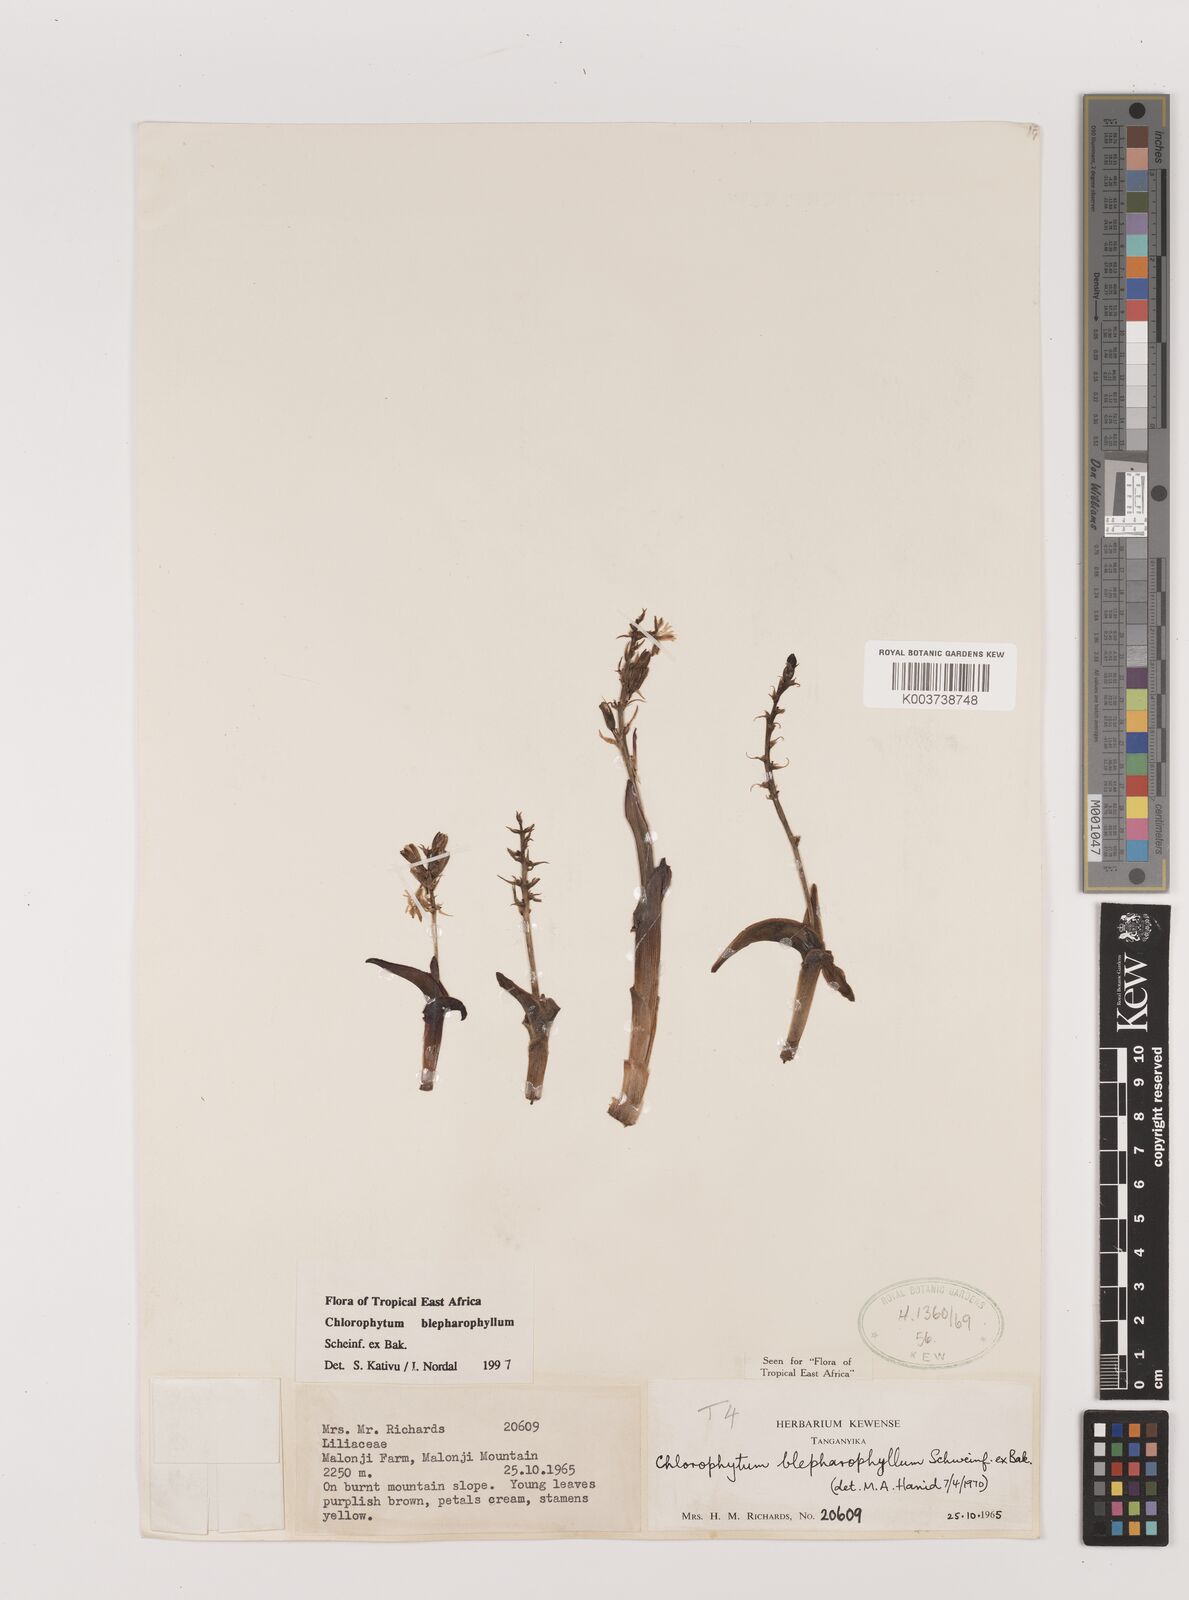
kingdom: Plantae
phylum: Tracheophyta
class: Liliopsida
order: Asparagales
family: Asparagaceae
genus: Chlorophytum
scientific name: Chlorophytum blepharophyllum
